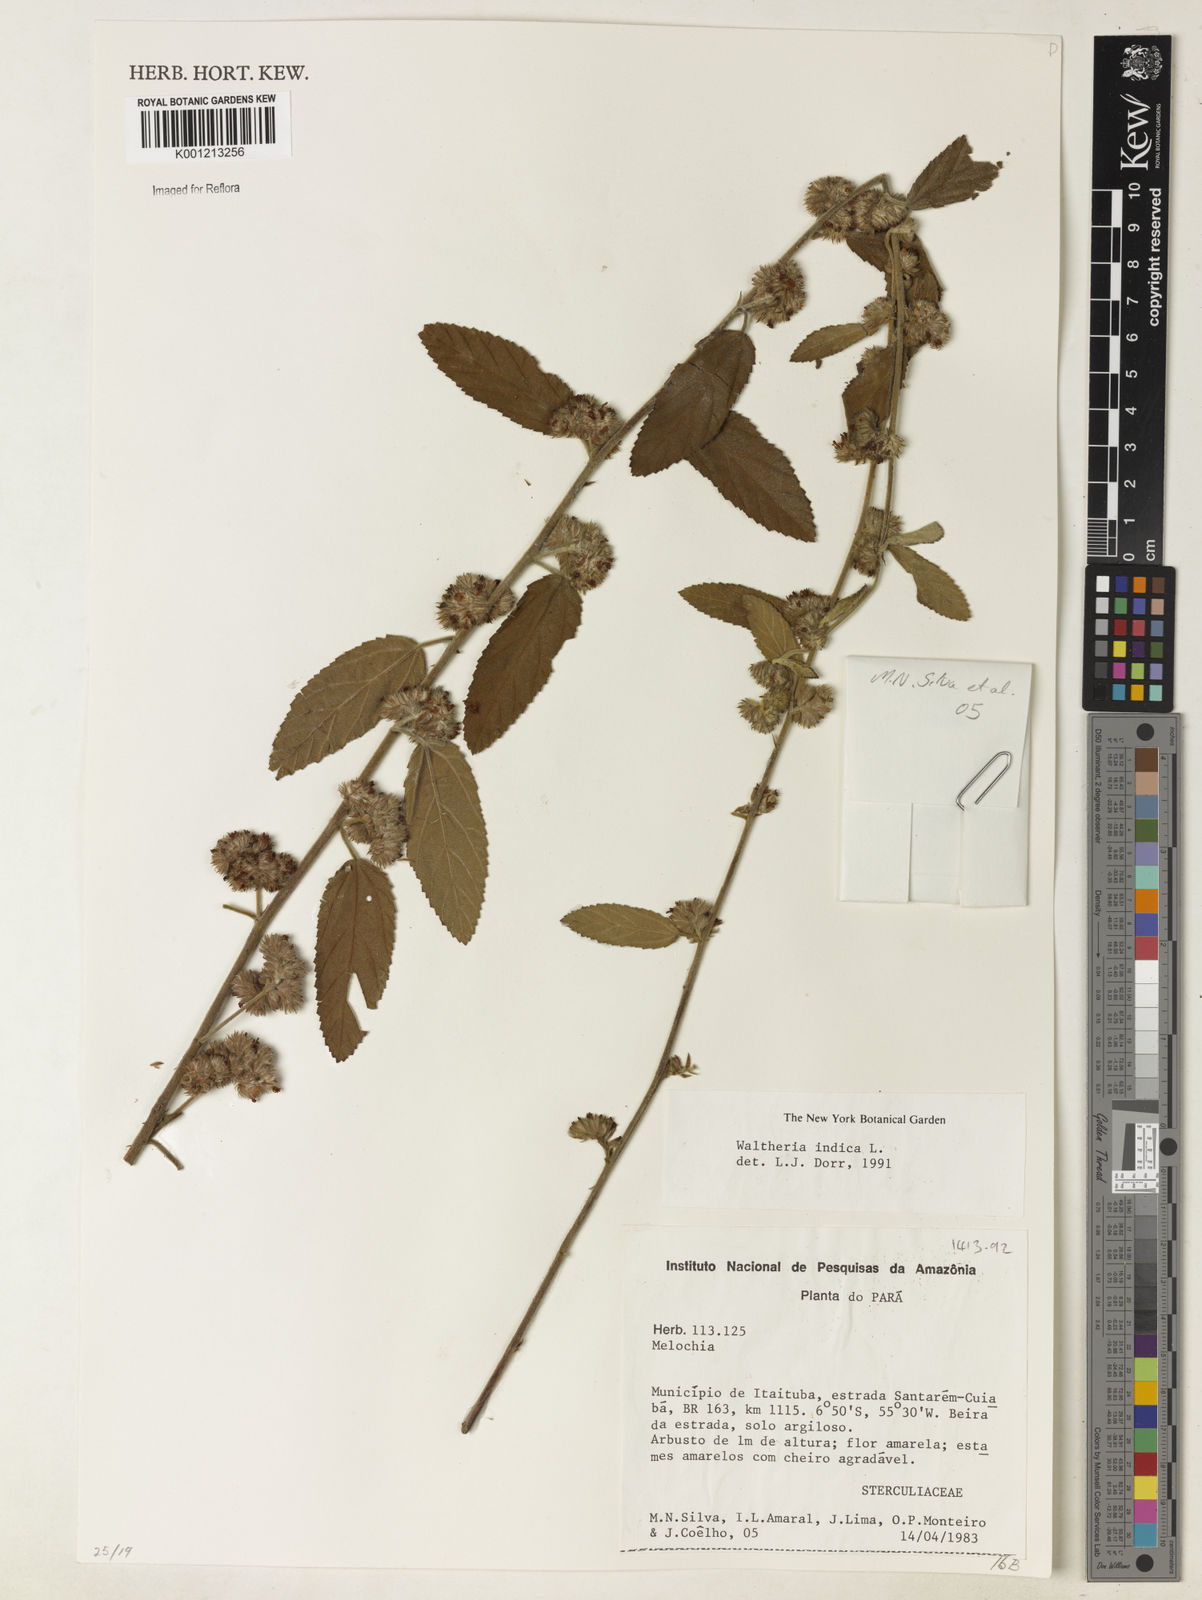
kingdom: Plantae
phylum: Tracheophyta
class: Magnoliopsida
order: Malvales
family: Malvaceae
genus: Waltheria
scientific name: Waltheria indica
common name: Leather-coat
